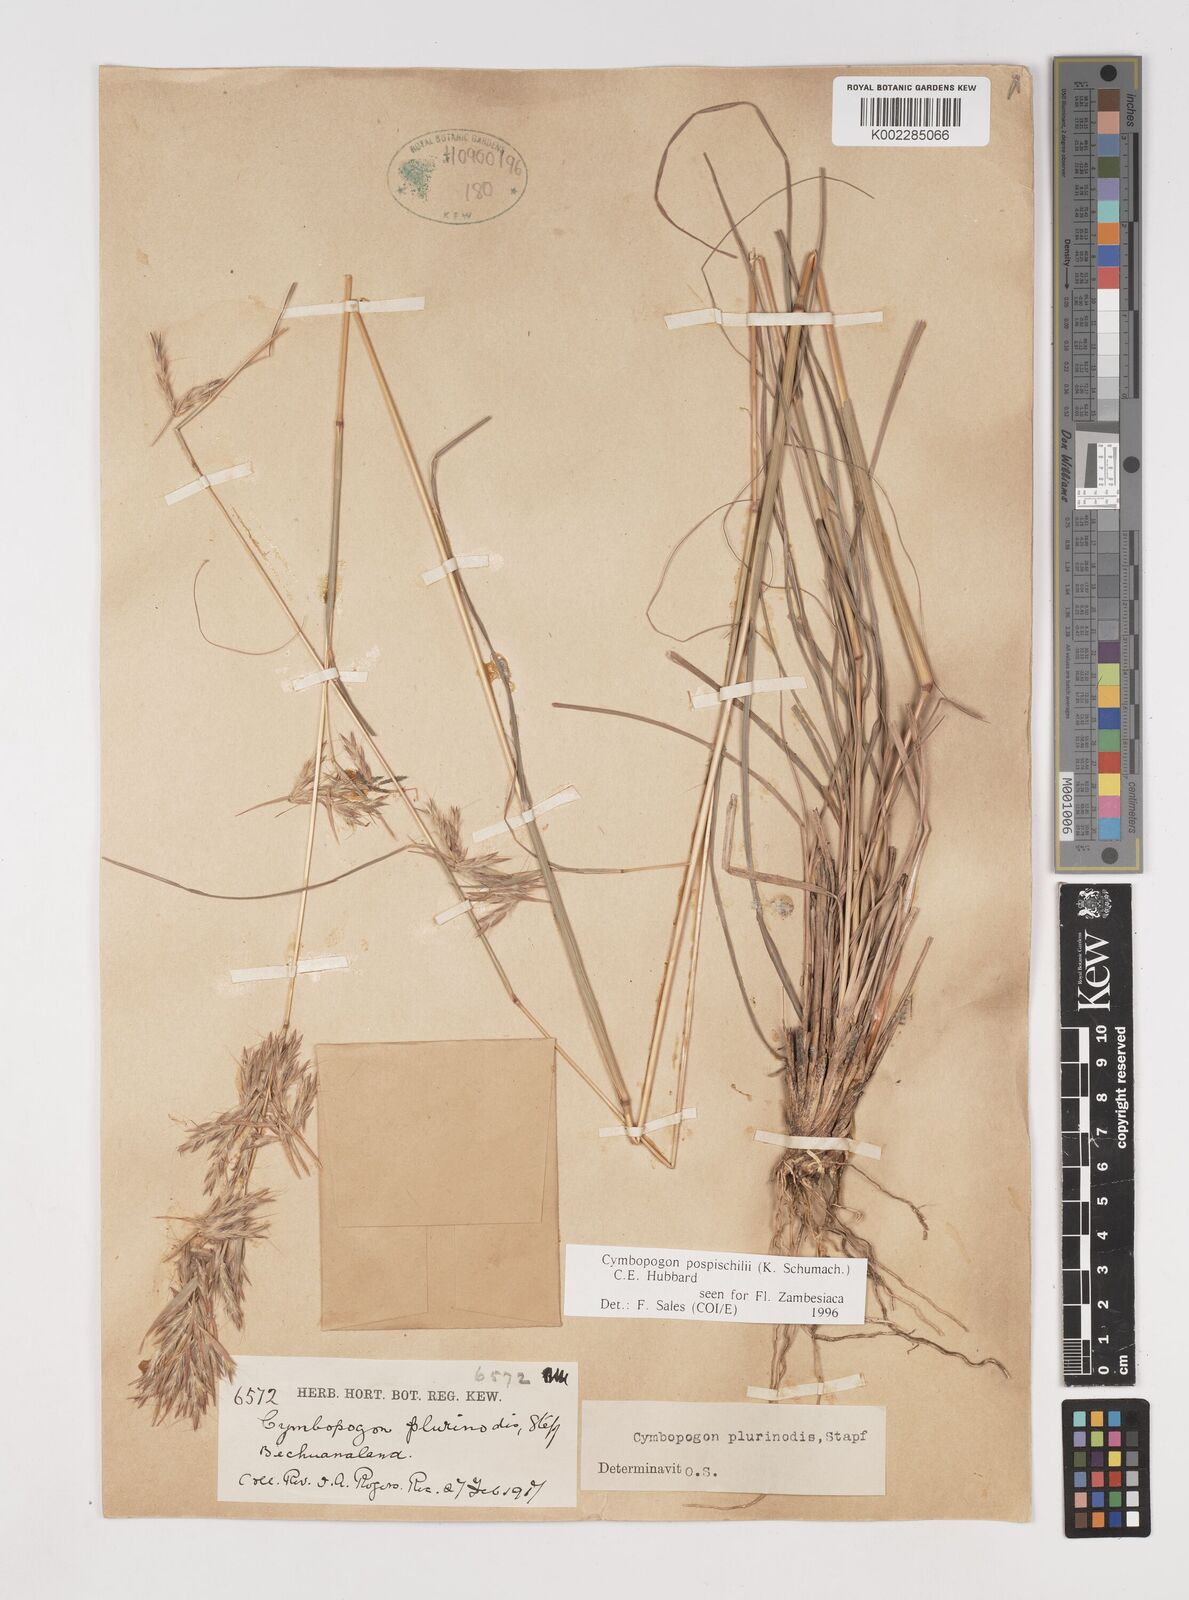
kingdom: Plantae
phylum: Tracheophyta
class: Liliopsida
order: Poales
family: Poaceae
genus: Cymbopogon
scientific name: Cymbopogon pospischilii
